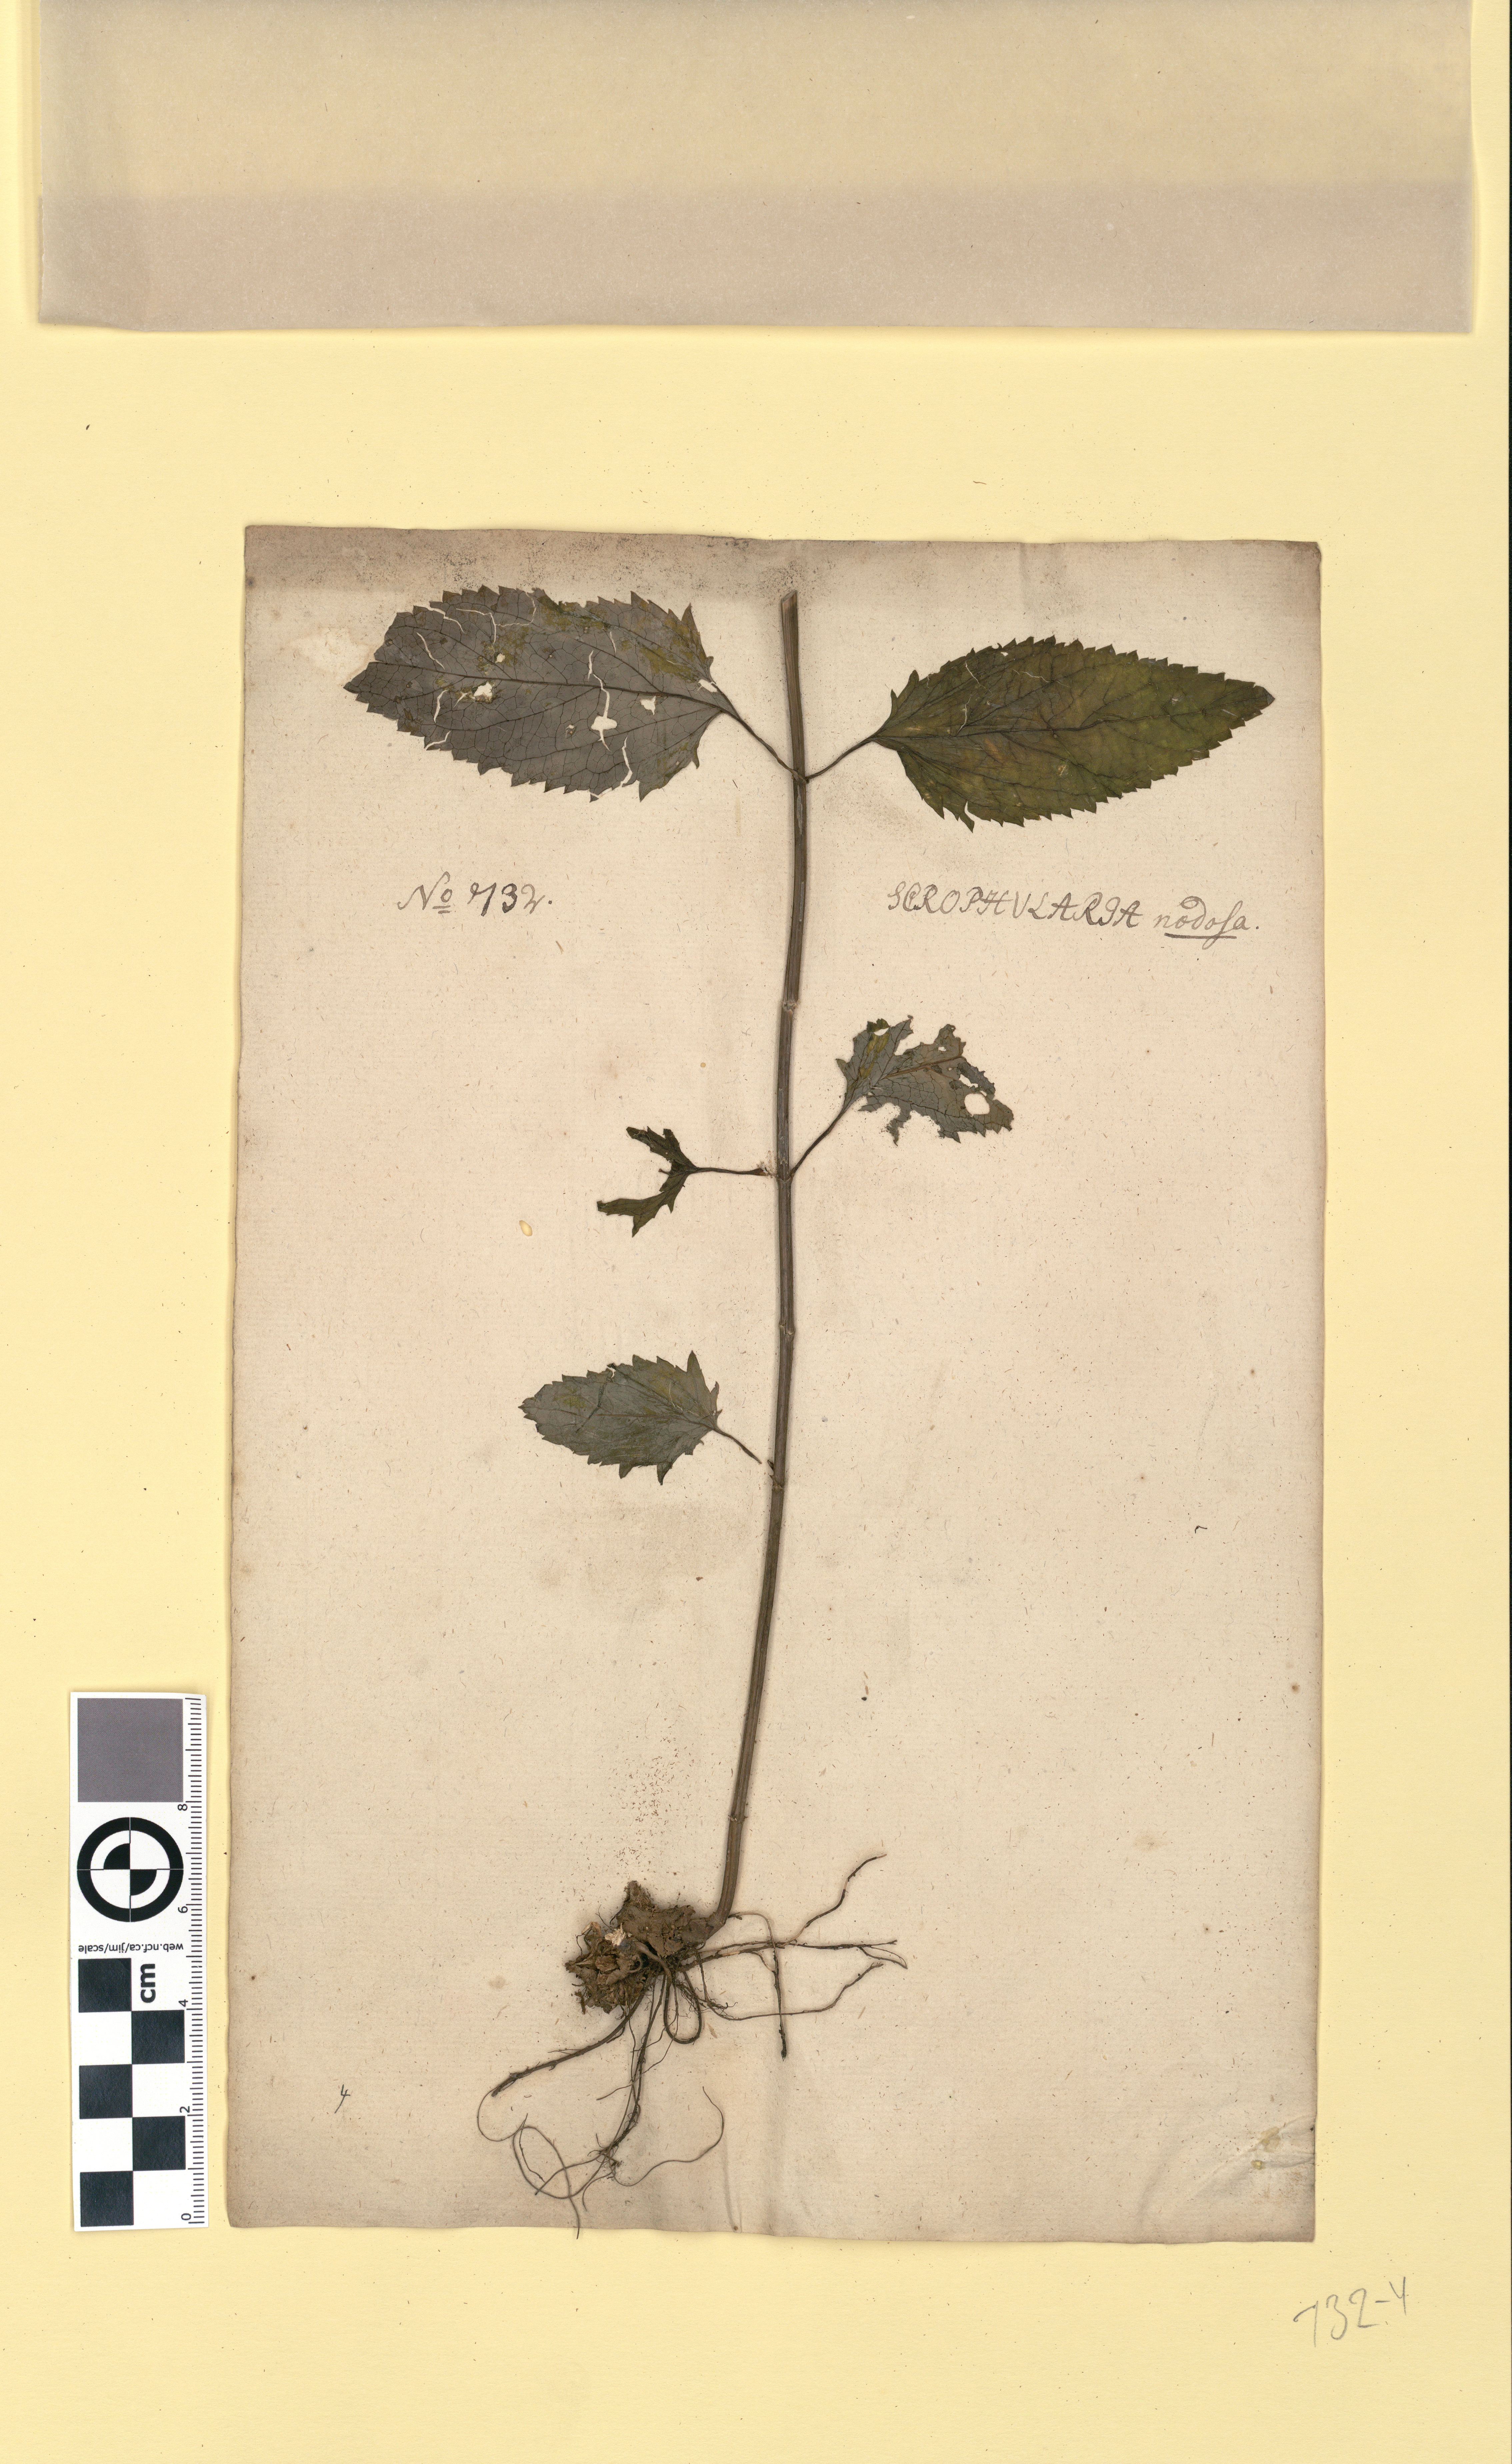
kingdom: Plantae
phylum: Tracheophyta
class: Magnoliopsida
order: Lamiales
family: Scrophulariaceae
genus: Scrophularia
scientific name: Scrophularia nodosa
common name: Common figwort
